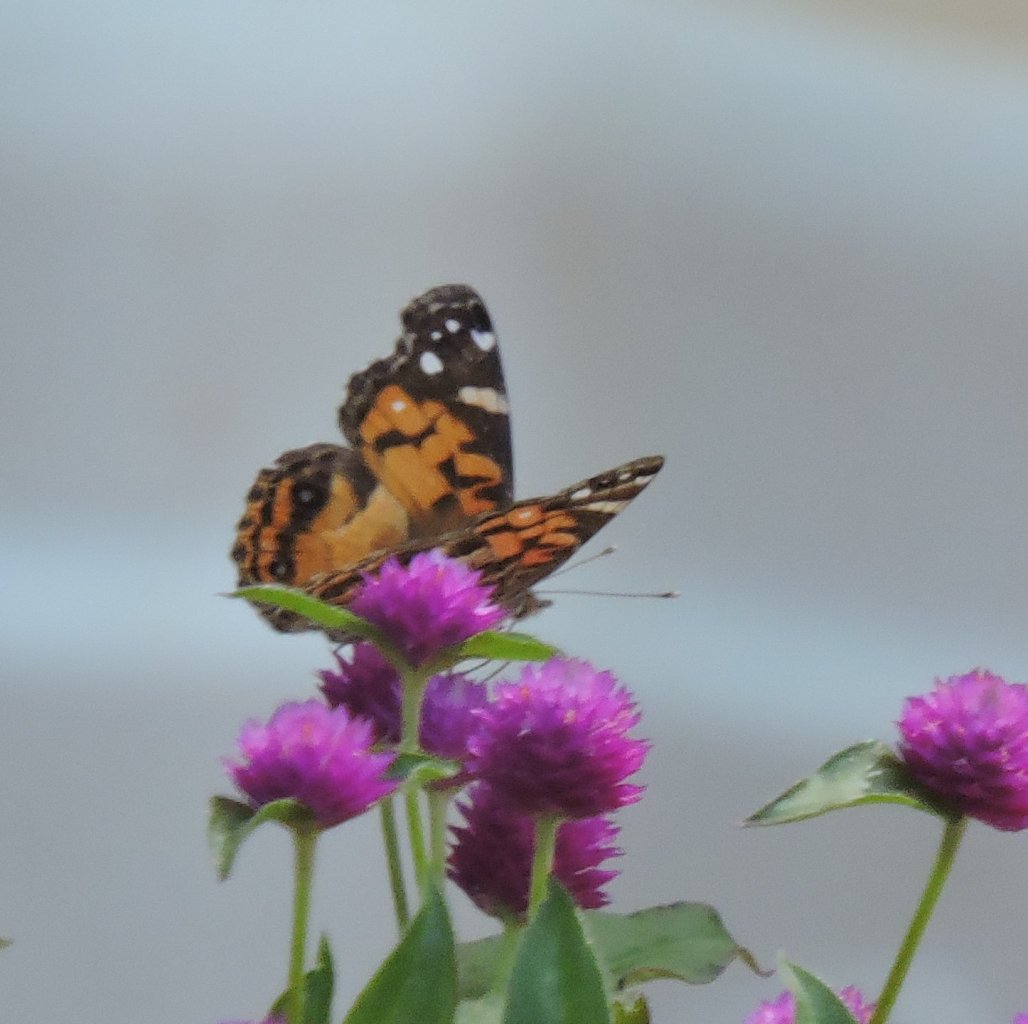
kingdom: Animalia
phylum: Arthropoda
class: Insecta
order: Lepidoptera
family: Nymphalidae
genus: Vanessa
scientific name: Vanessa virginiensis
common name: American Lady
